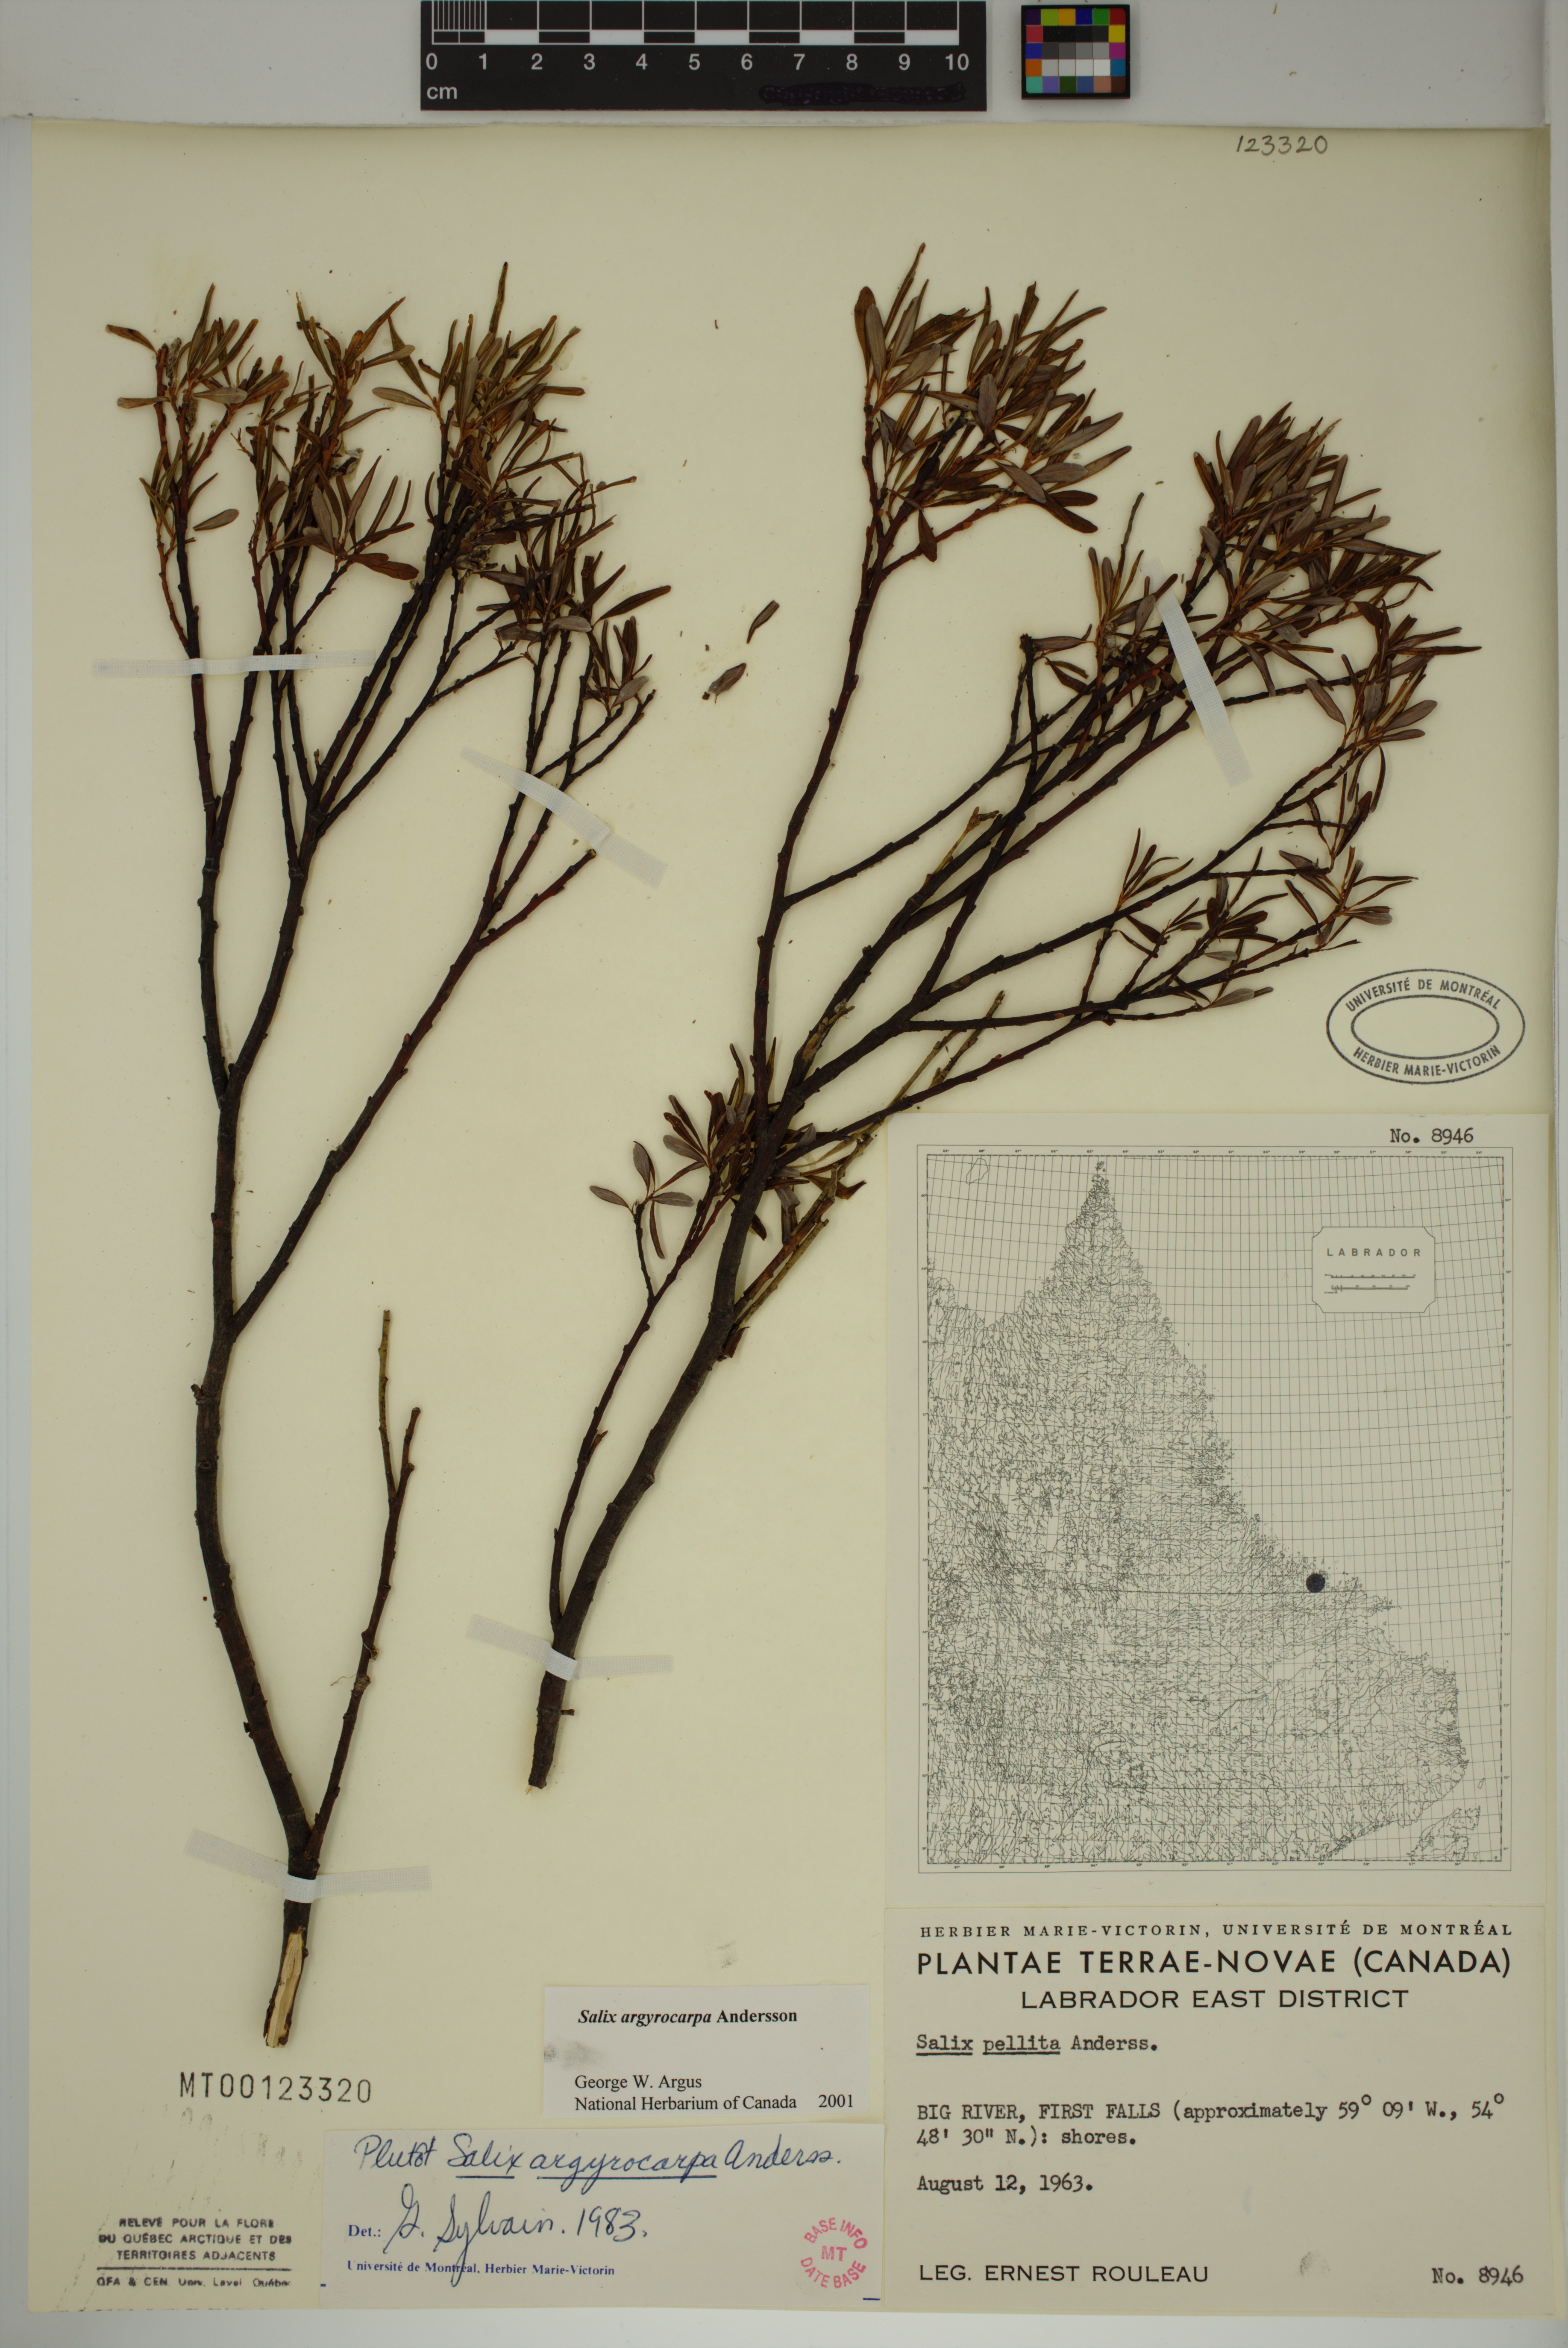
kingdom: Plantae
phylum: Tracheophyta
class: Magnoliopsida
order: Malpighiales
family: Salicaceae
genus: Salix
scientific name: Salix argyrocarpa
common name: Labrador willow
